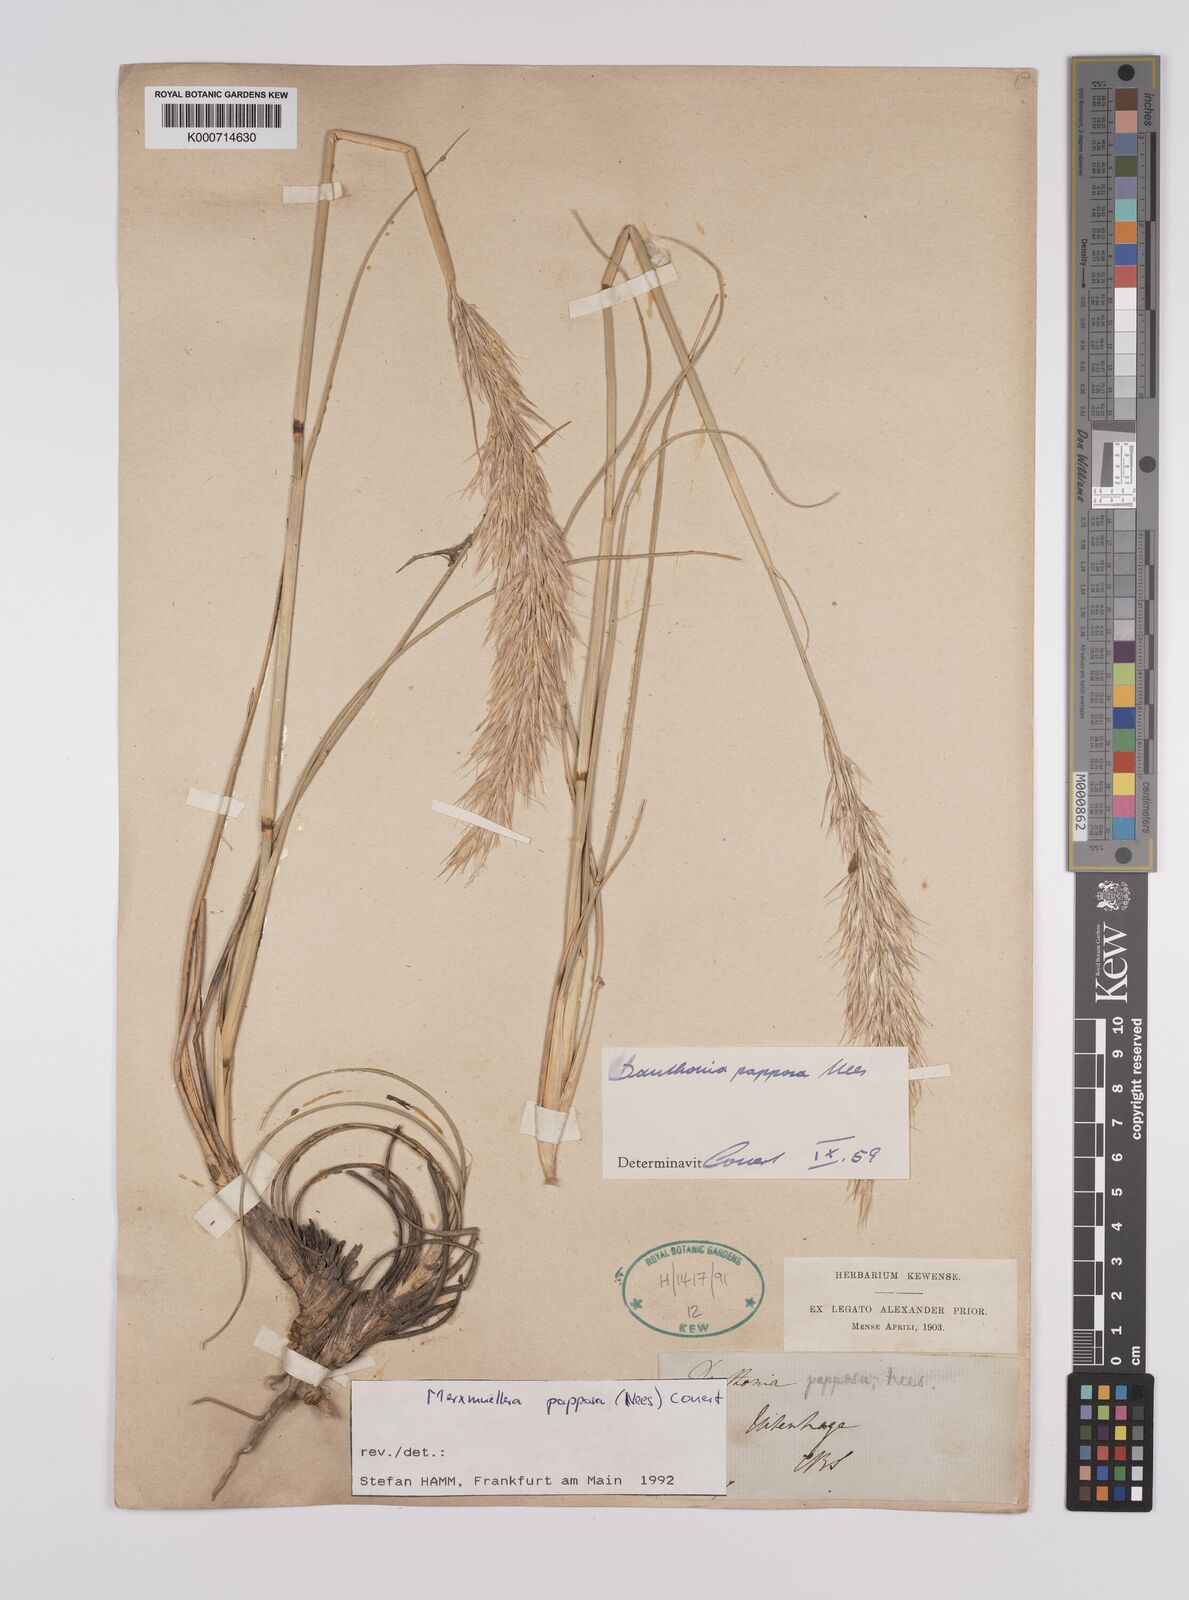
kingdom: Plantae
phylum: Tracheophyta
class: Liliopsida
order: Poales
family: Poaceae
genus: Rytidosperma
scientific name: Rytidosperma
